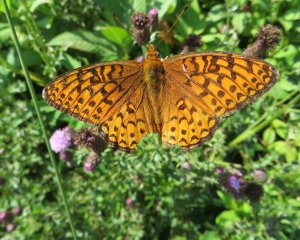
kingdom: Animalia
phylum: Arthropoda
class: Insecta
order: Lepidoptera
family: Nymphalidae
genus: Speyeria
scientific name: Speyeria atlantis
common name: Atlantis Fritillary
